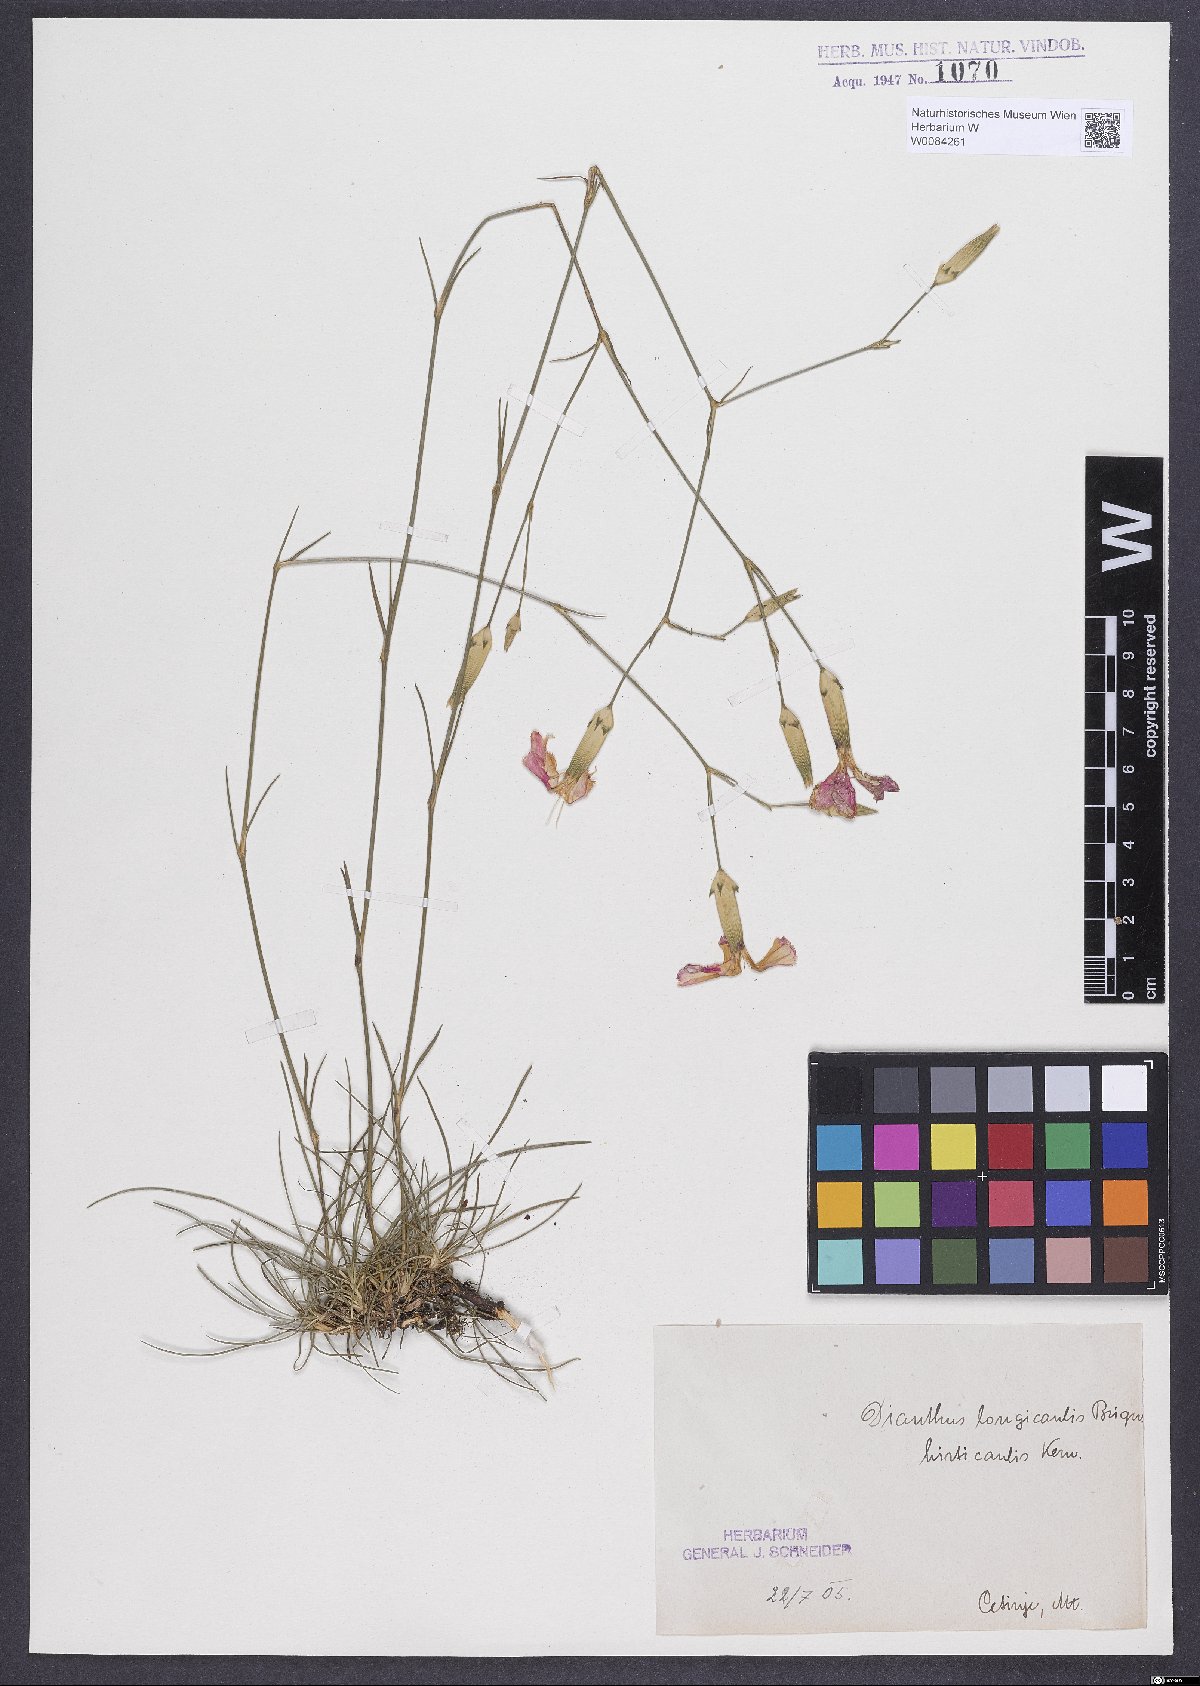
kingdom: Plantae
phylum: Tracheophyta
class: Magnoliopsida
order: Caryophyllales
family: Caryophyllaceae
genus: Dianthus
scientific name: Dianthus virgineus
